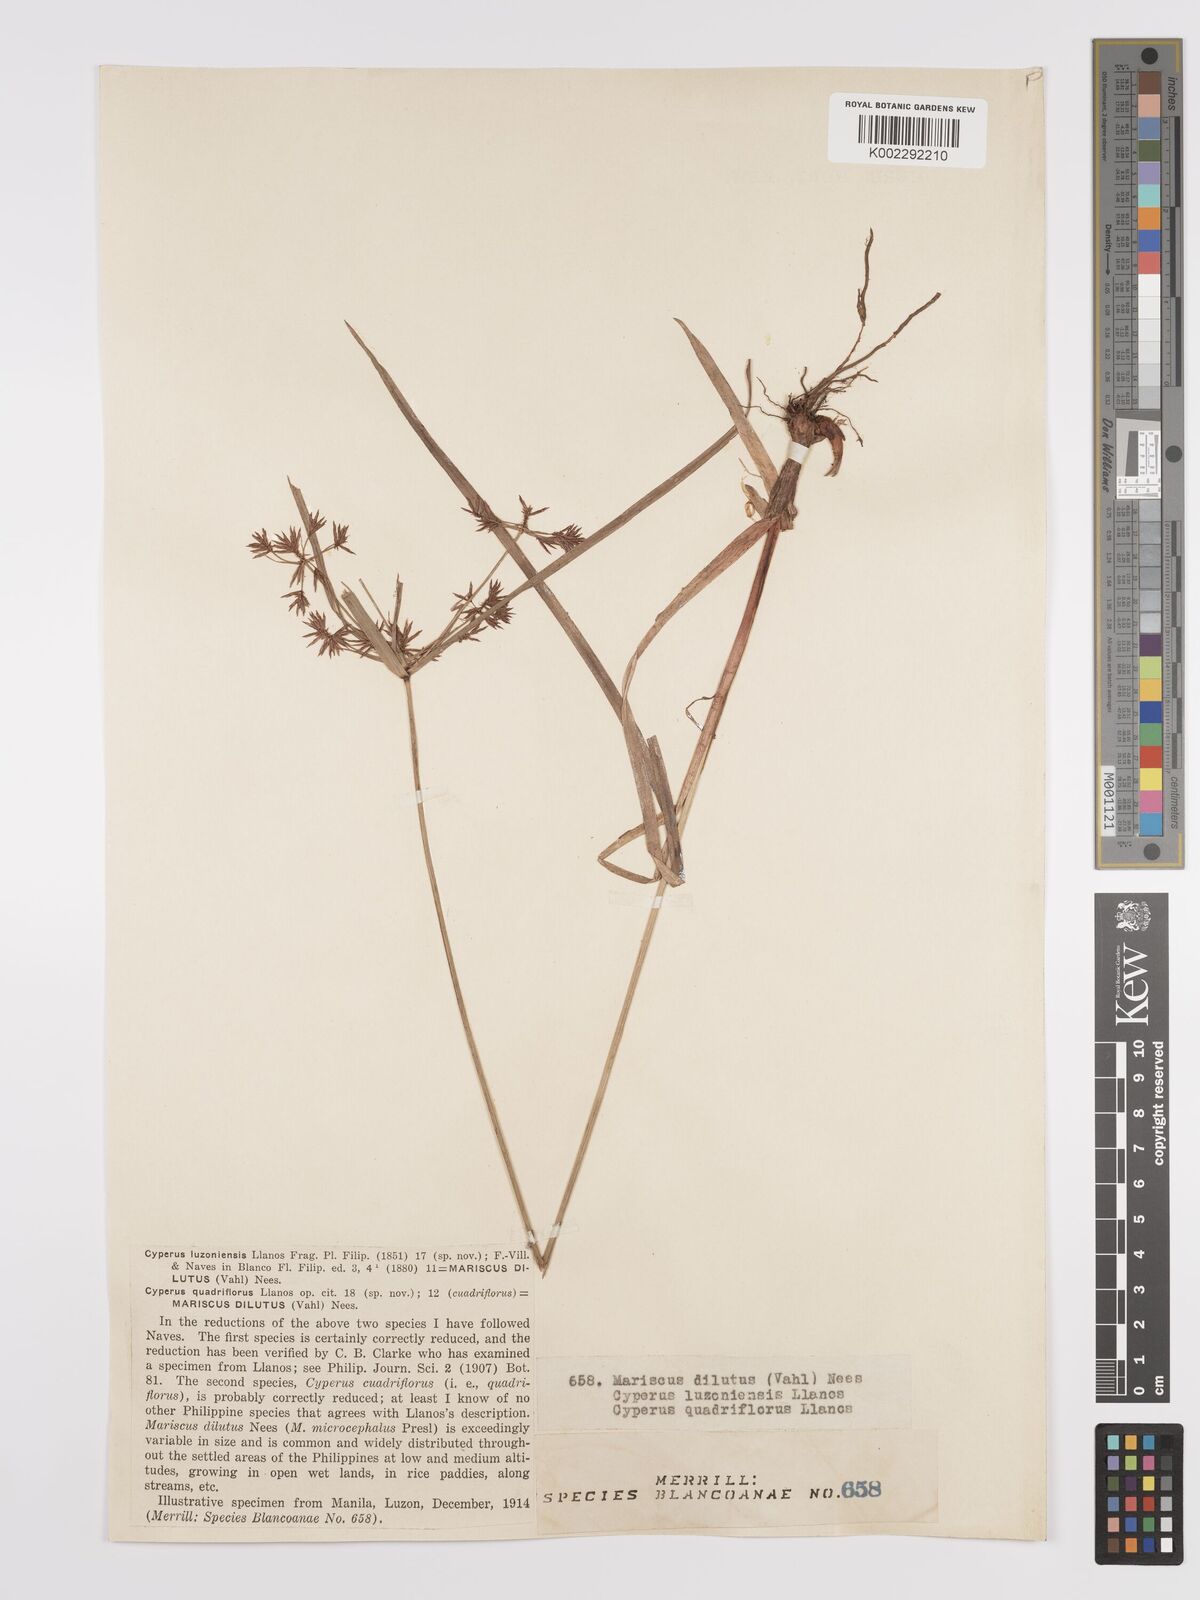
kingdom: Plantae
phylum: Tracheophyta
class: Liliopsida
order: Poales
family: Cyperaceae
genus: Cyperus
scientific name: Cyperus compactus
